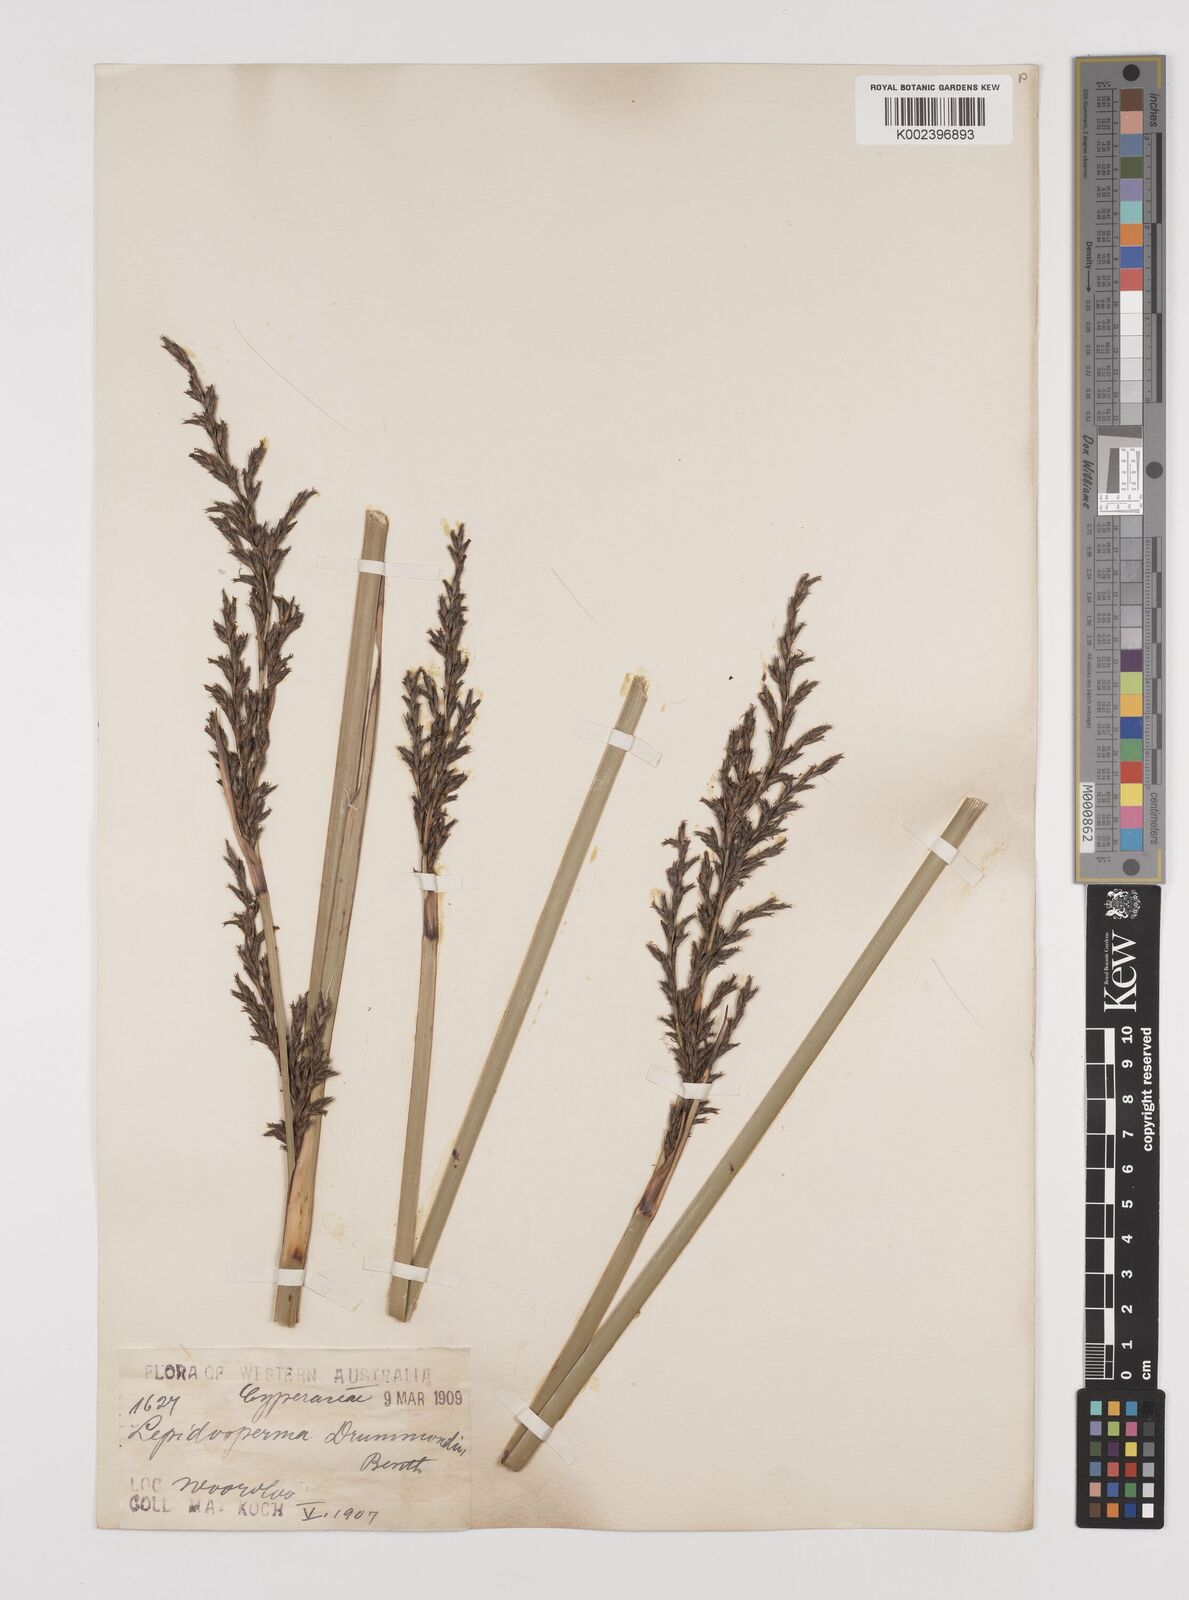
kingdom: Plantae
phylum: Tracheophyta
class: Liliopsida
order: Poales
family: Cyperaceae
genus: Lepidosperma
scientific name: Lepidosperma drummondii
